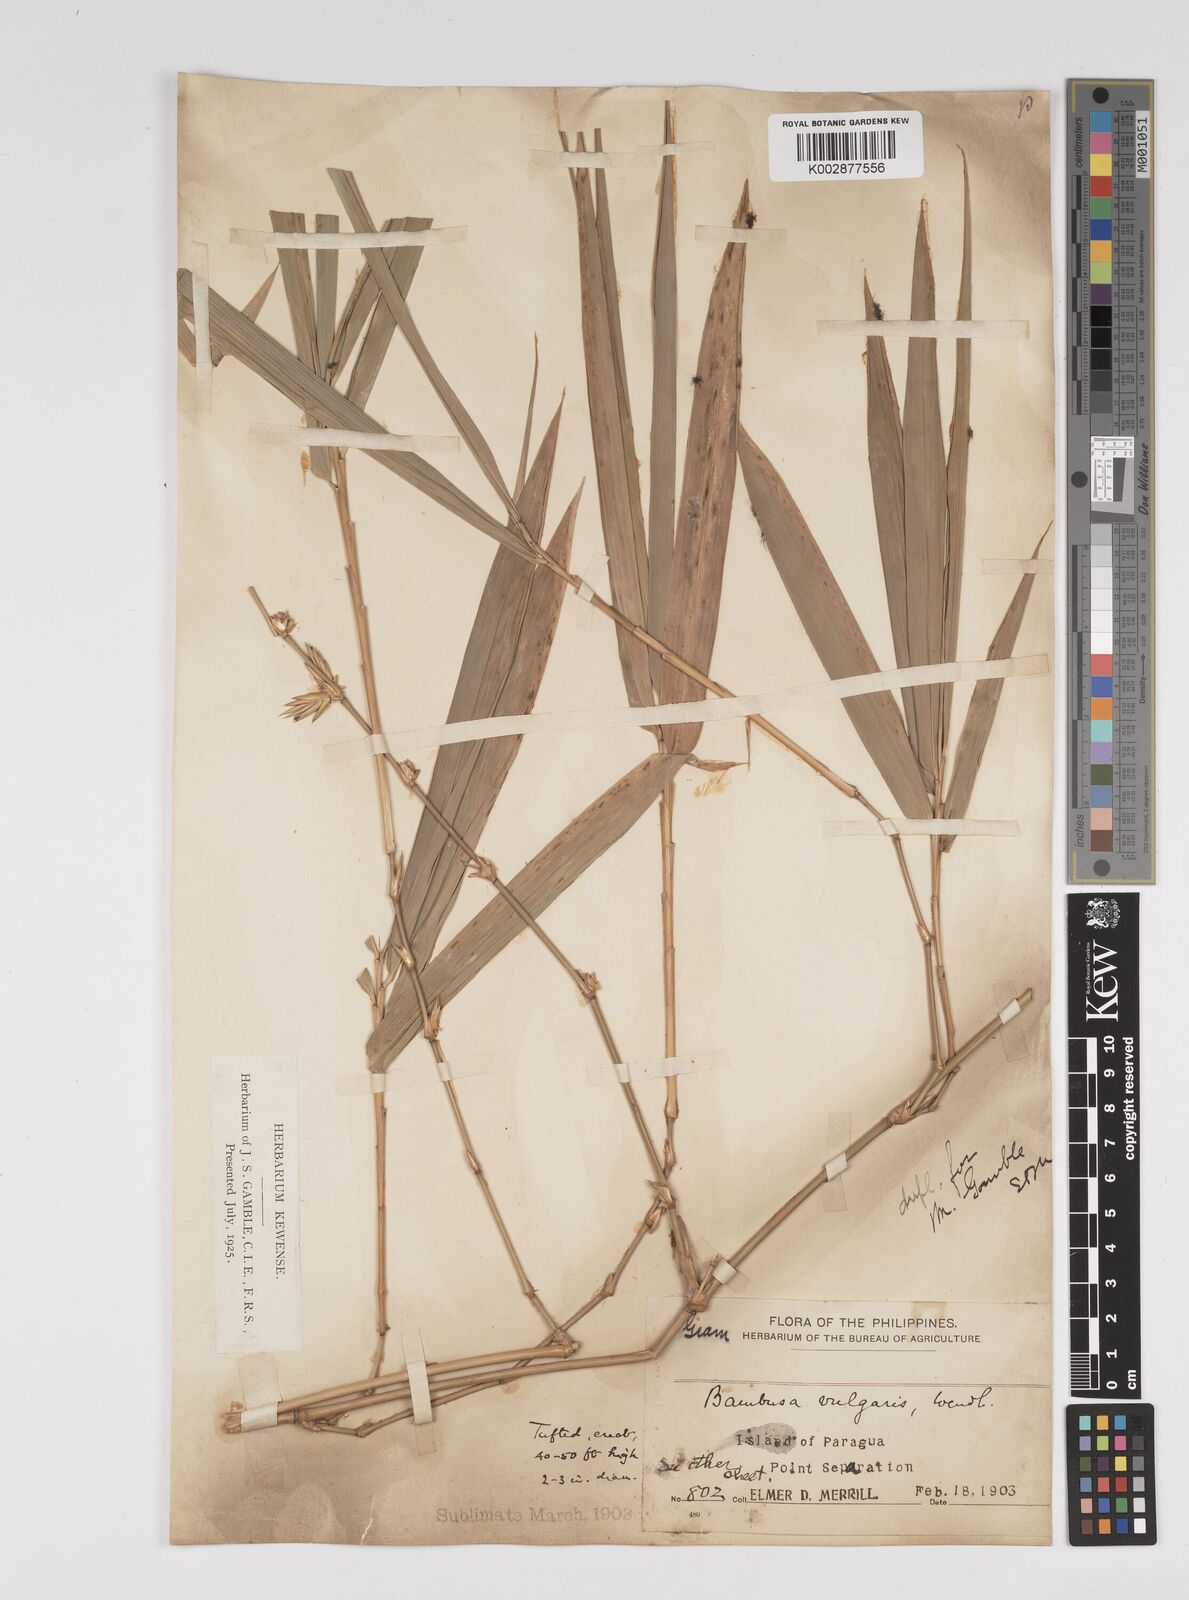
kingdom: Plantae
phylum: Tracheophyta
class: Liliopsida
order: Poales
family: Poaceae
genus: Bambusa
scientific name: Bambusa vulgaris
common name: Common bamboo
